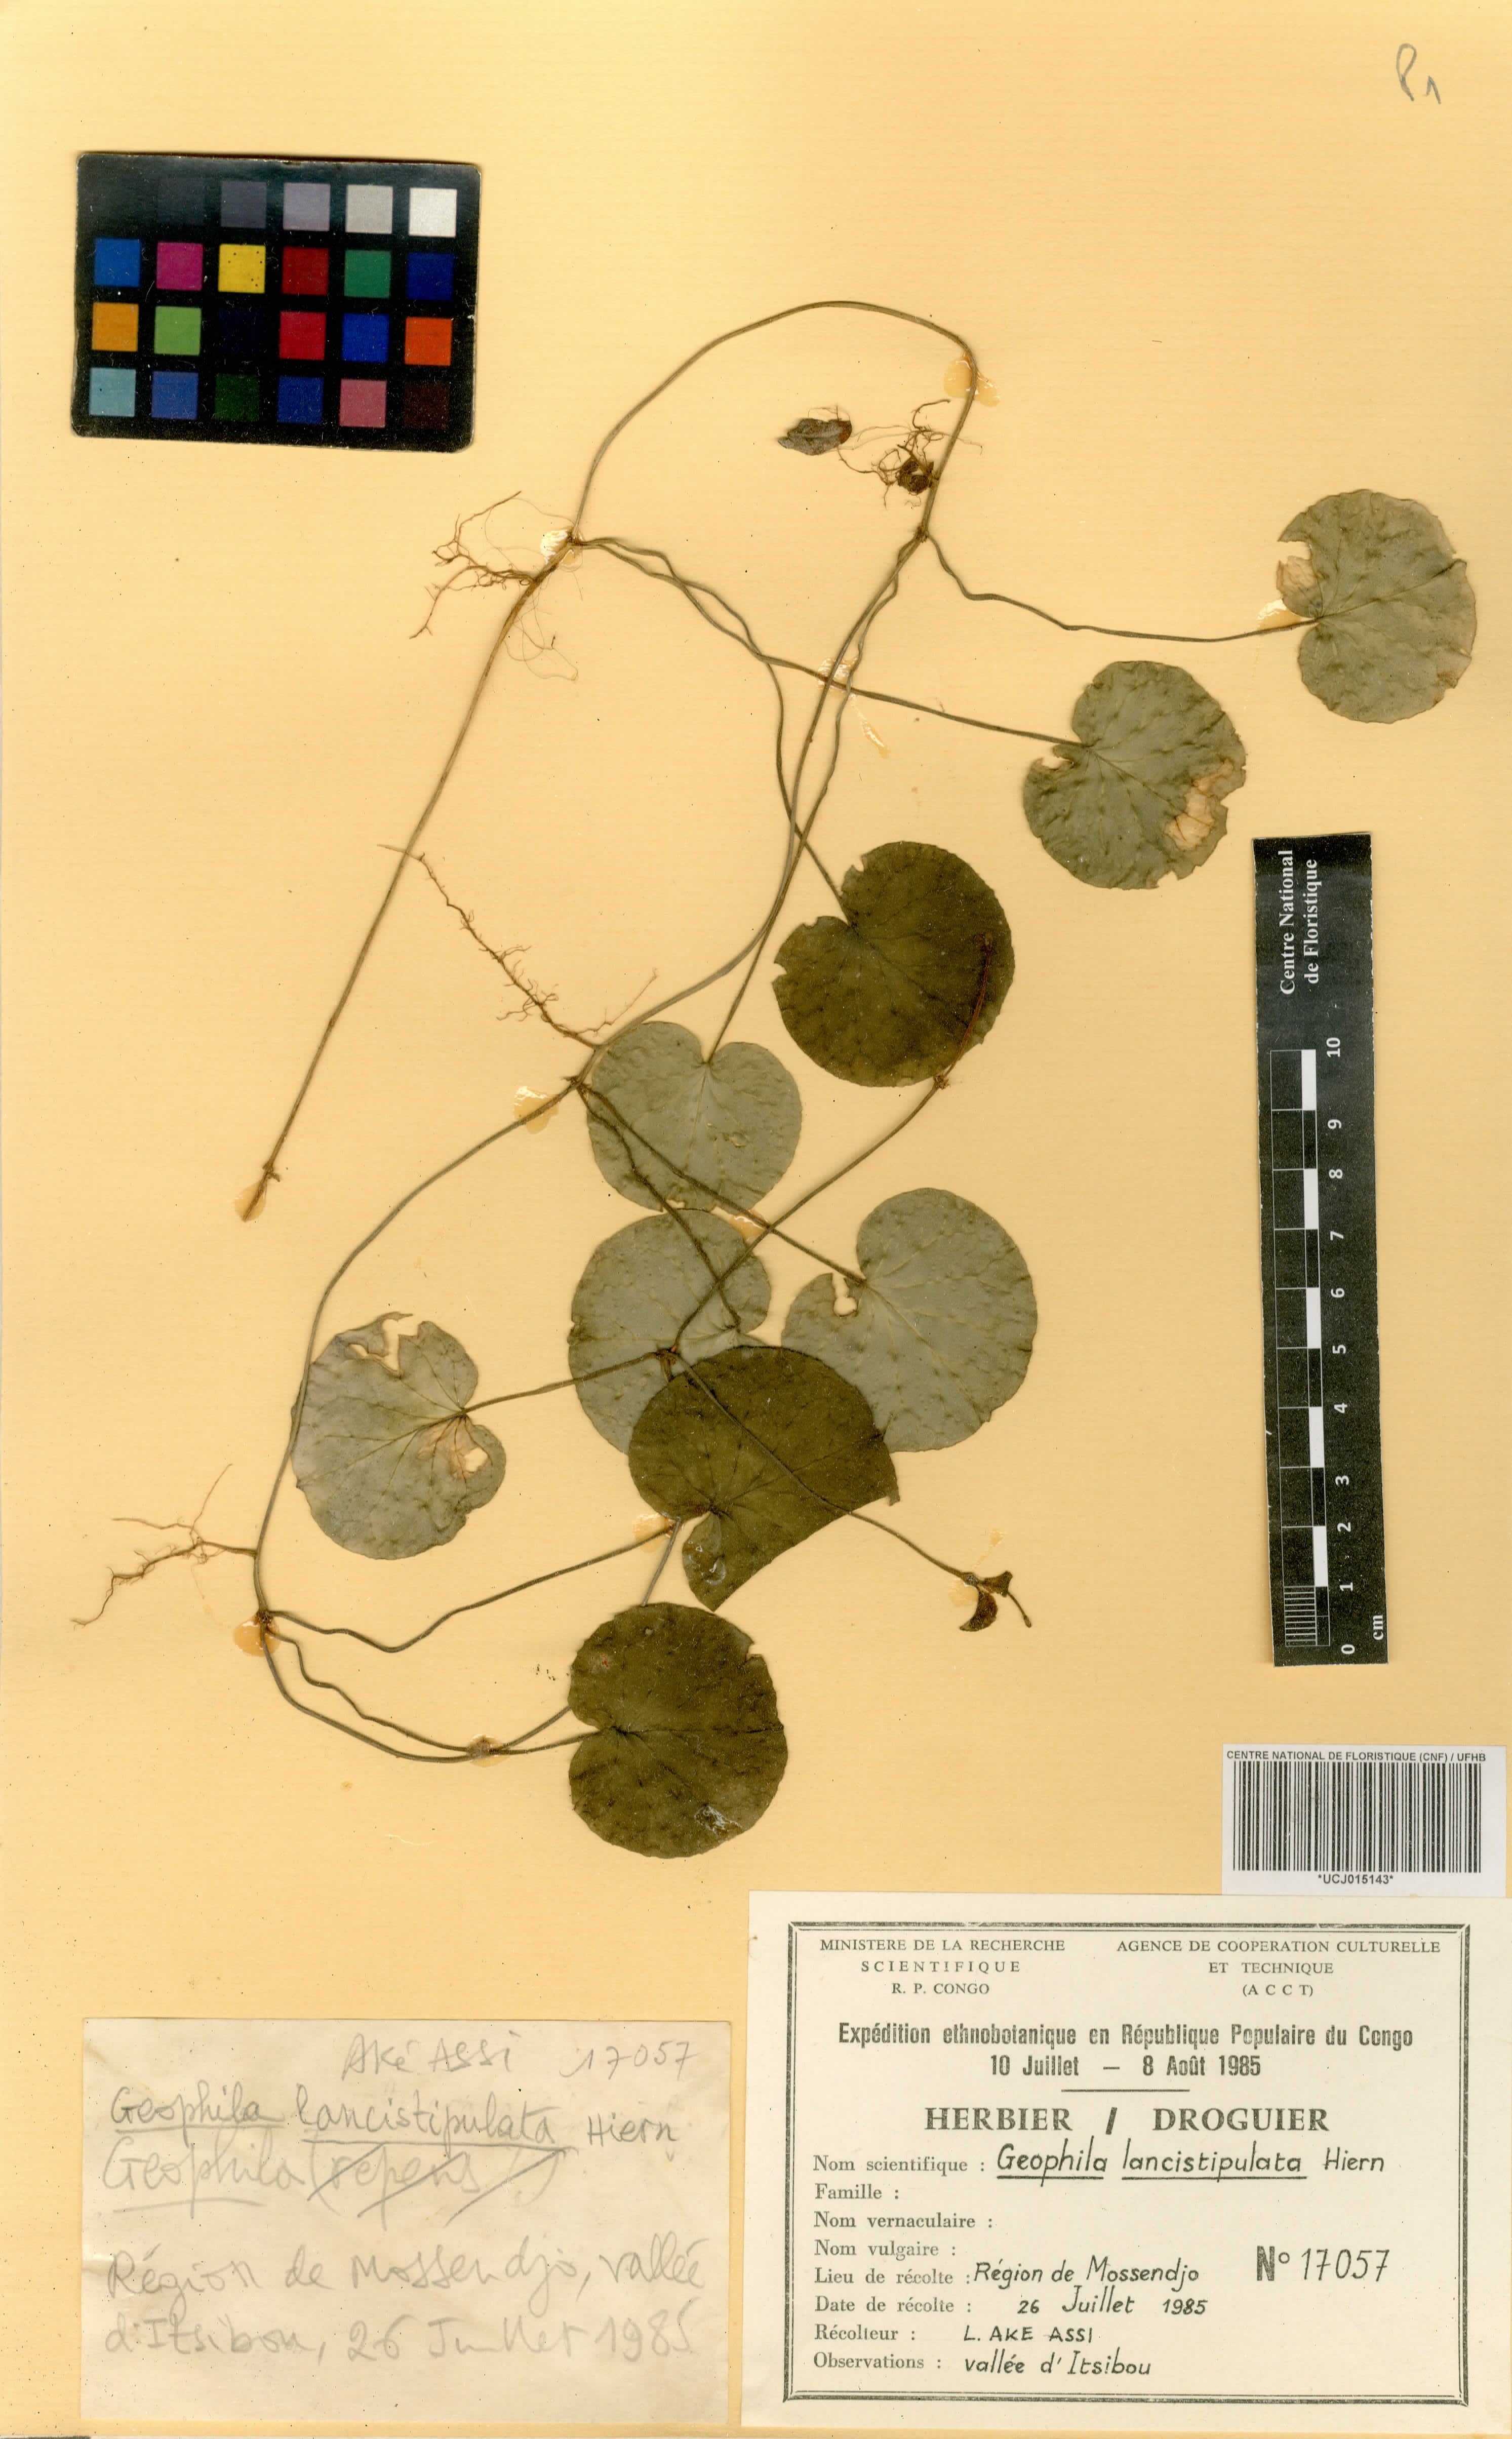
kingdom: Plantae
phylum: Tracheophyta
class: Magnoliopsida
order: Gentianales
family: Rubiaceae
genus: Geophila
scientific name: Geophila lancistipula
